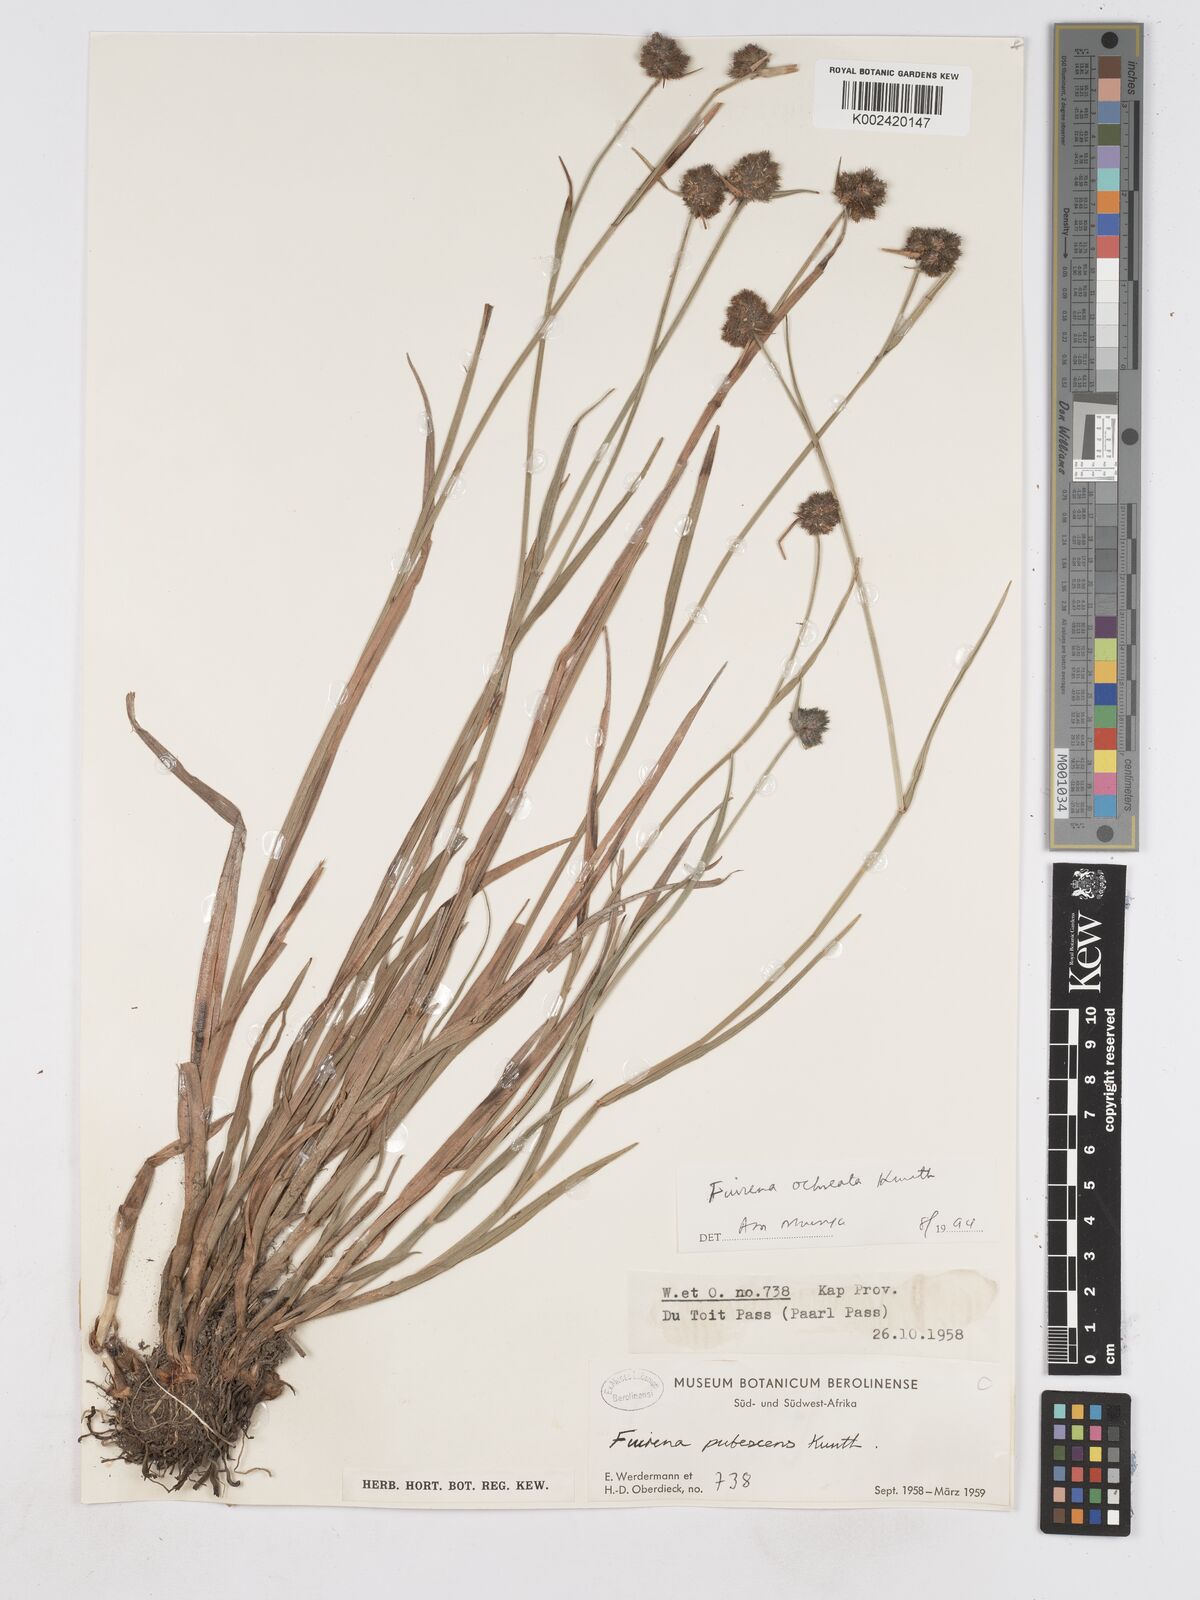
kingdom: Plantae
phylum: Tracheophyta
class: Liliopsida
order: Poales
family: Cyperaceae
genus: Fuirena
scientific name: Fuirena pubescens
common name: Hairy sedge
